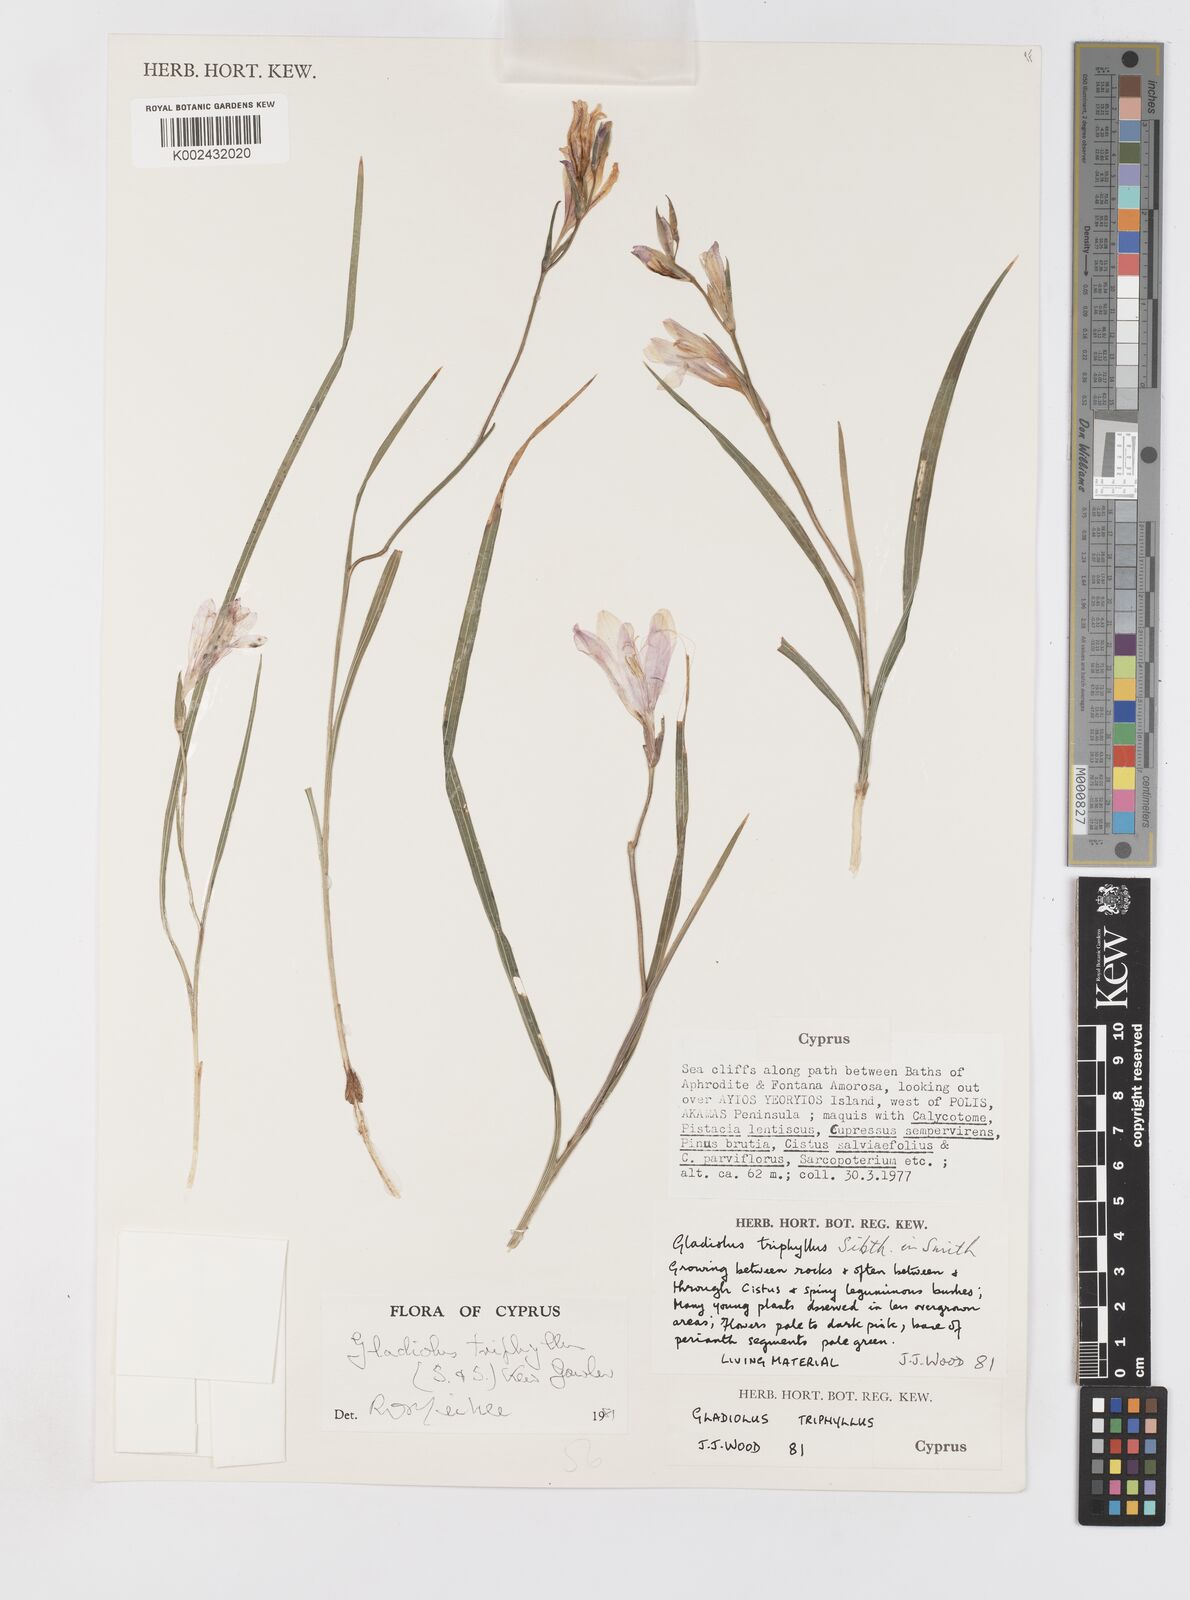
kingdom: Plantae
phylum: Tracheophyta
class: Liliopsida
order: Asparagales
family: Iridaceae
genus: Gladiolus
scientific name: Gladiolus triphyllus
